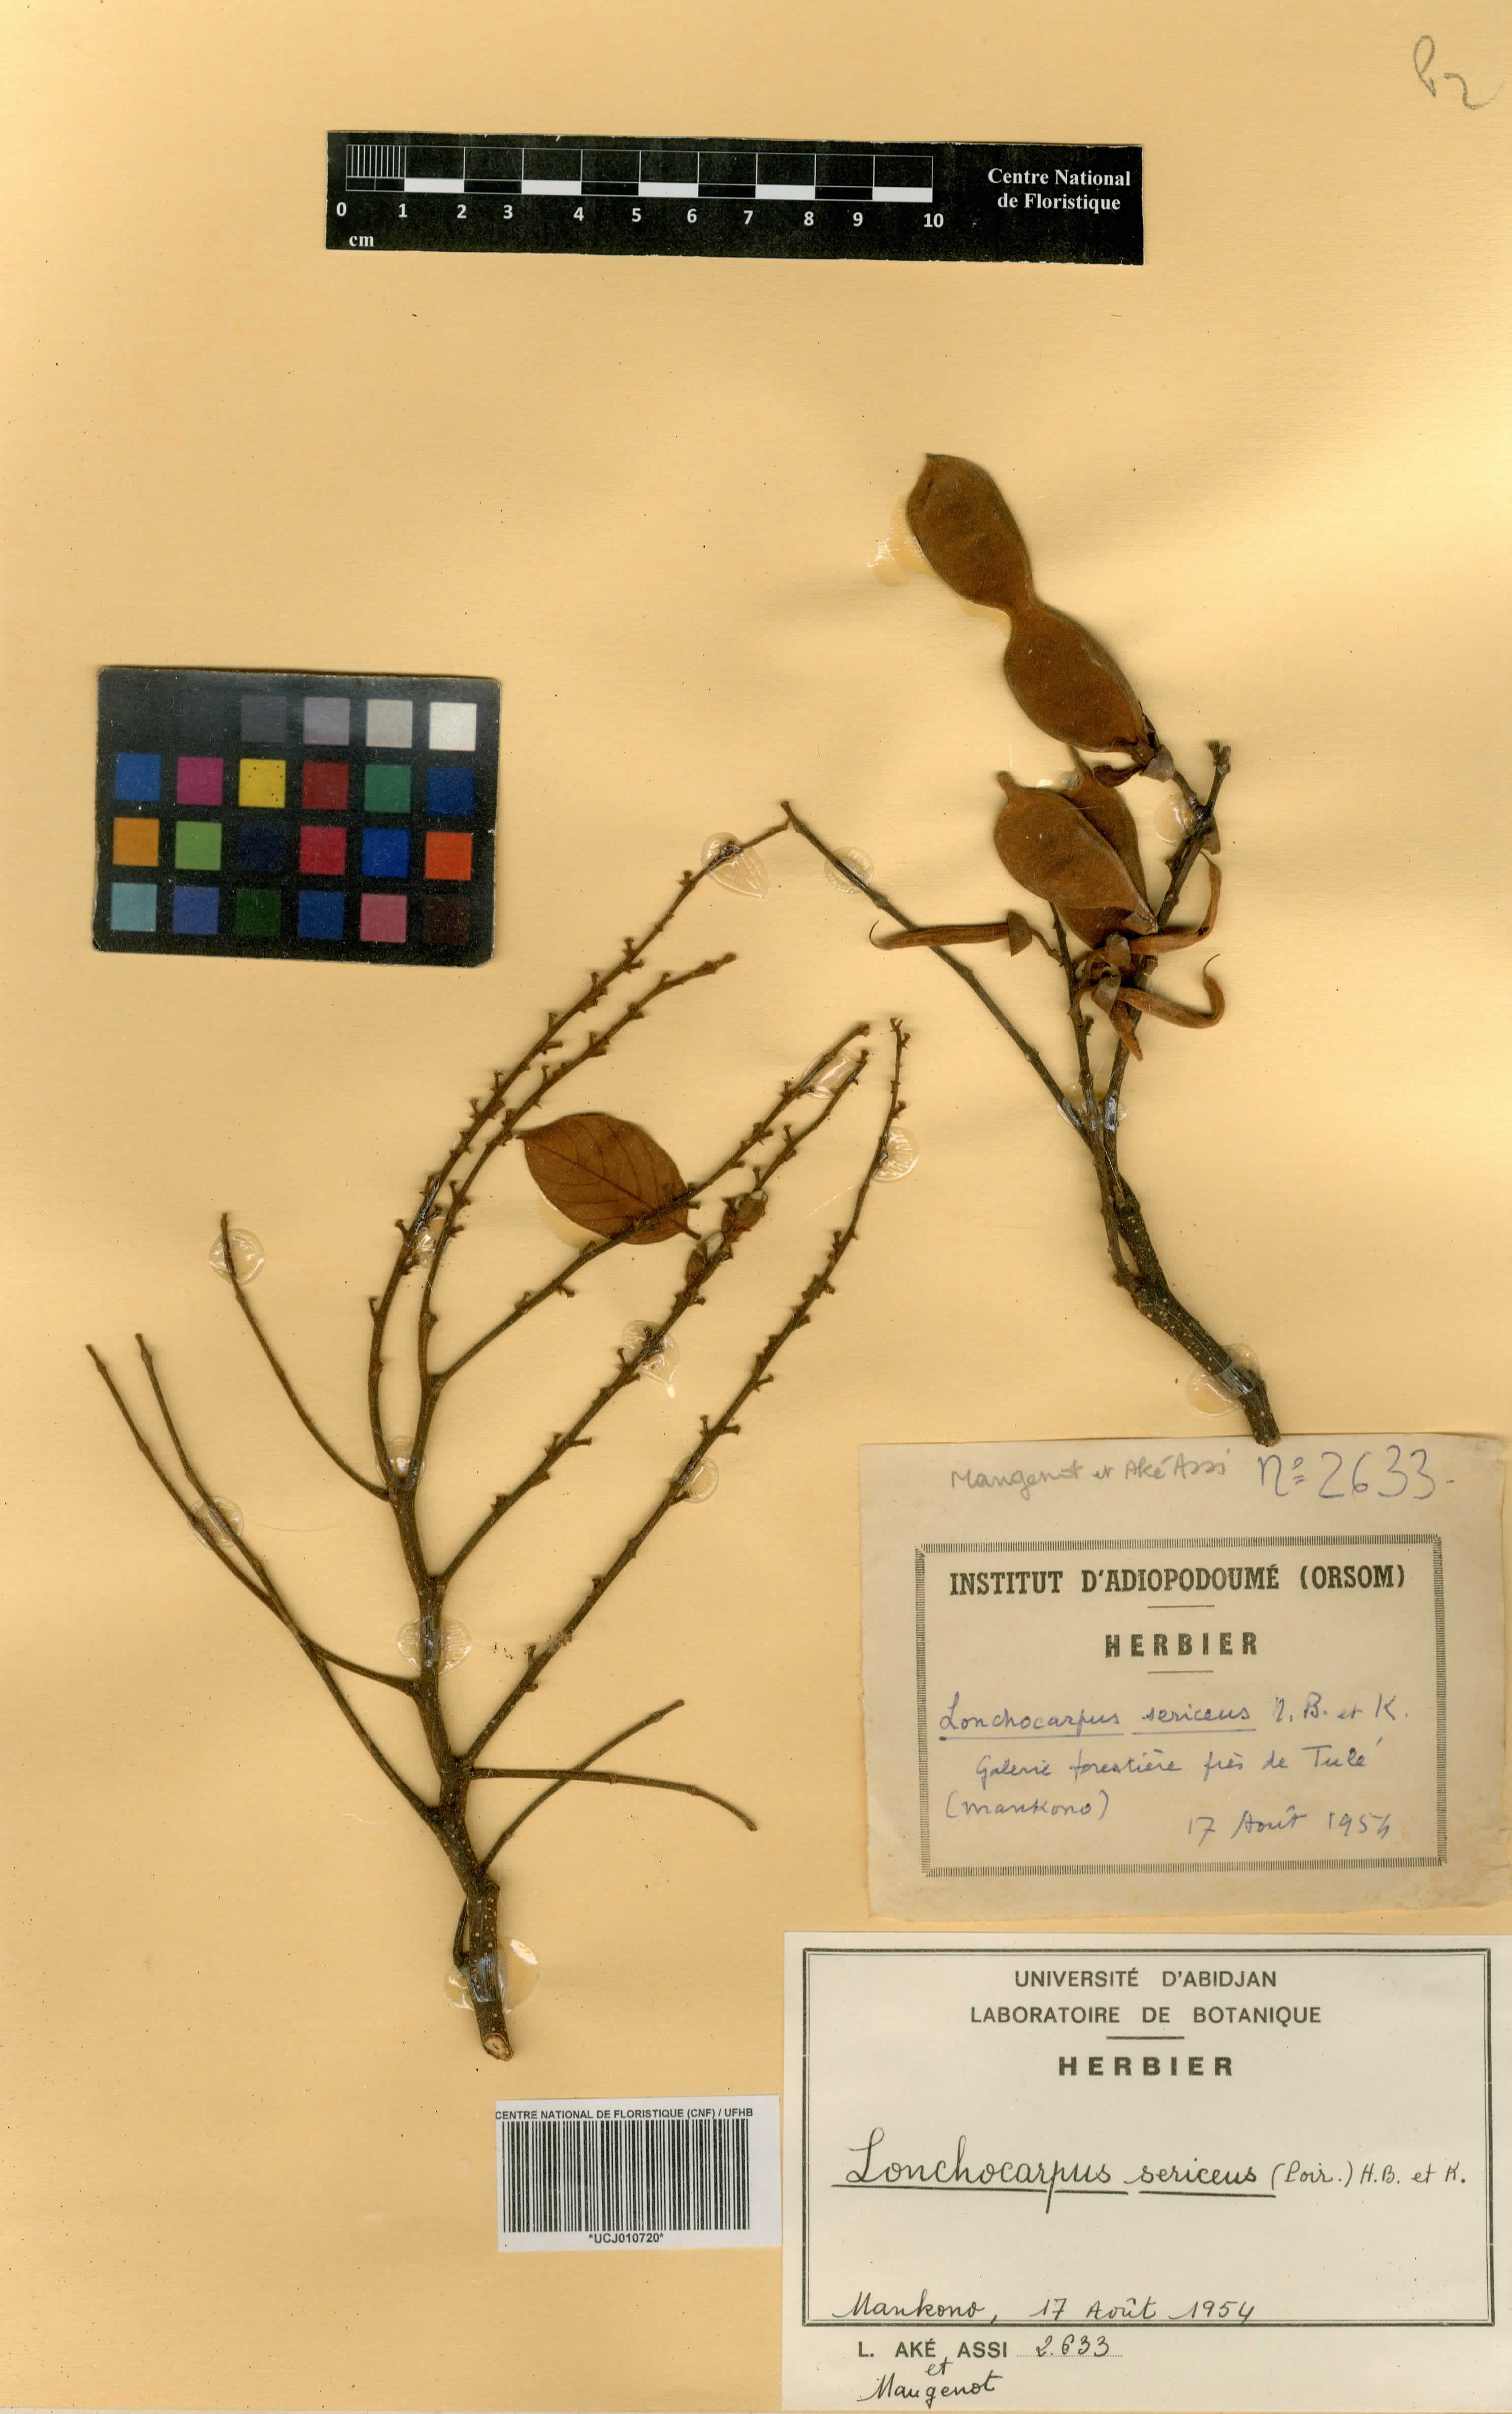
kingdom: Plantae
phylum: Tracheophyta
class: Magnoliopsida
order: Fabales
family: Fabaceae
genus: Lonchocarpus
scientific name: Lonchocarpus sericeus
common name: Savonette
